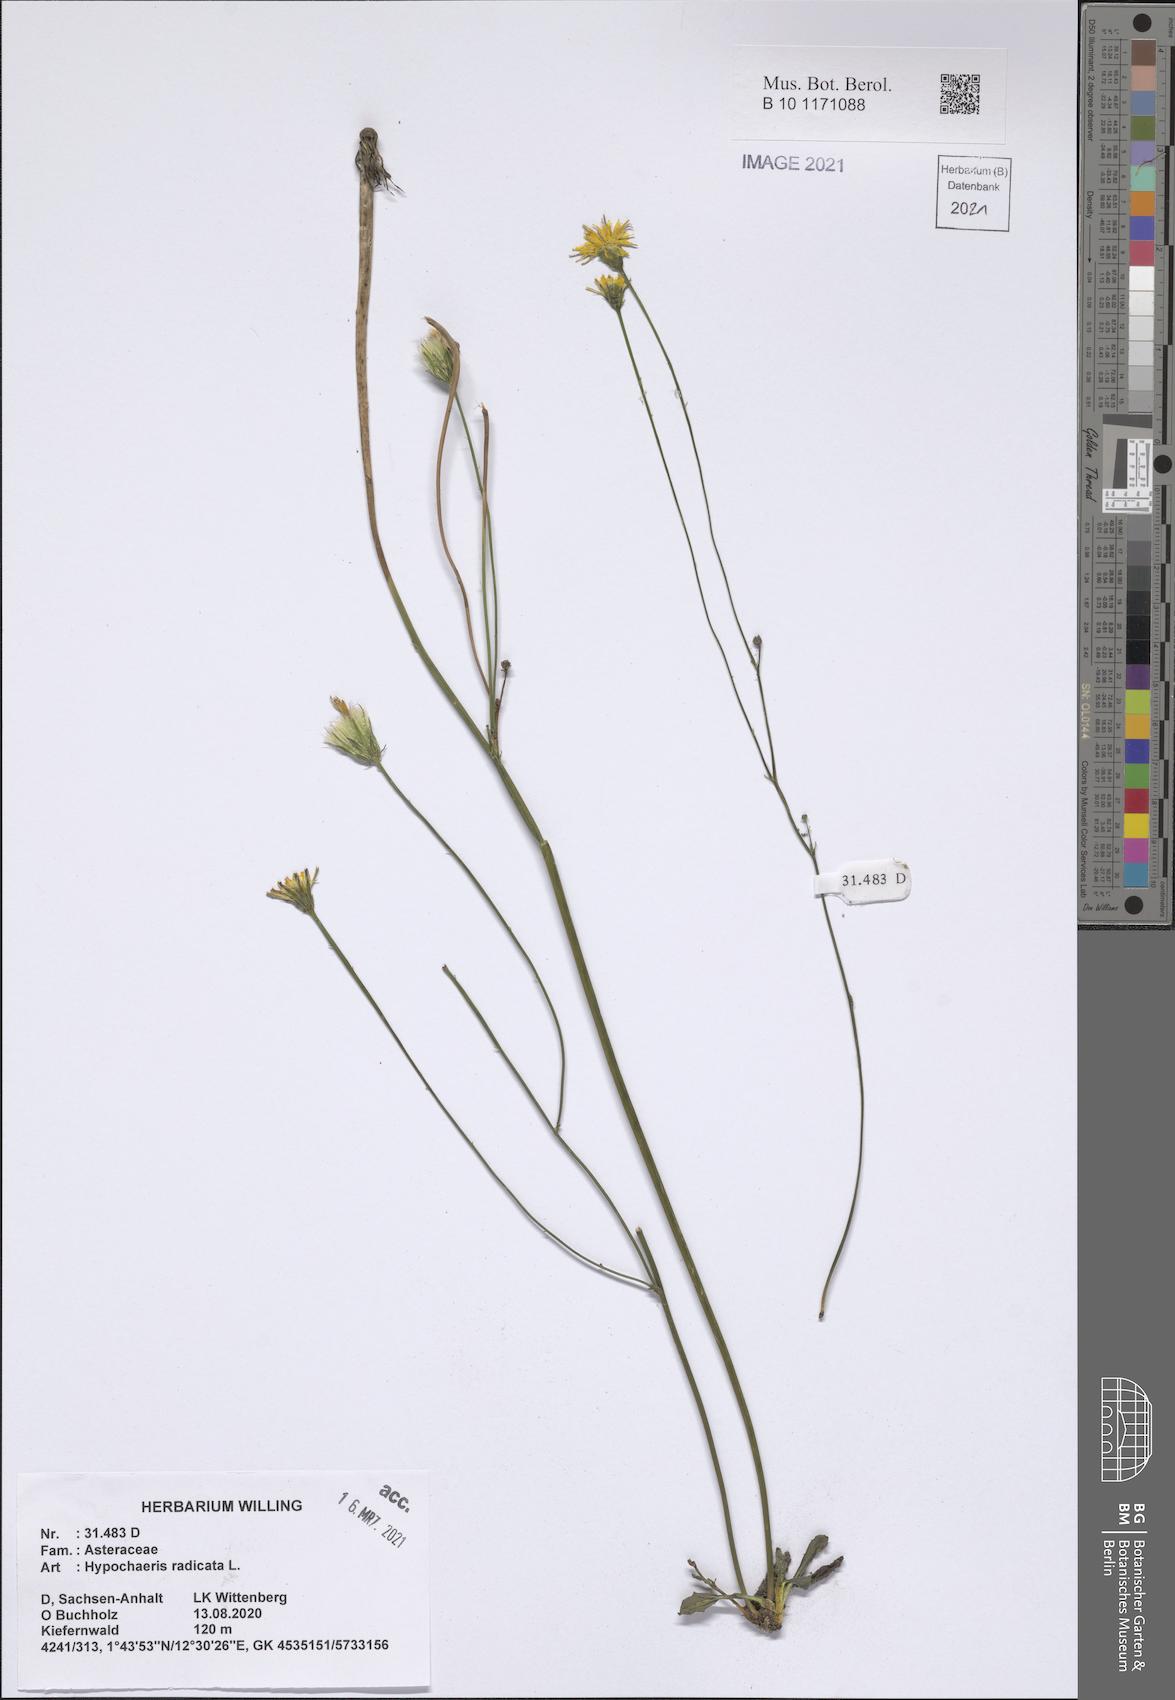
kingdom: Plantae
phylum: Tracheophyta
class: Magnoliopsida
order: Asterales
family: Asteraceae
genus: Hypochaeris
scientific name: Hypochaeris radicata
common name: Flatweed
